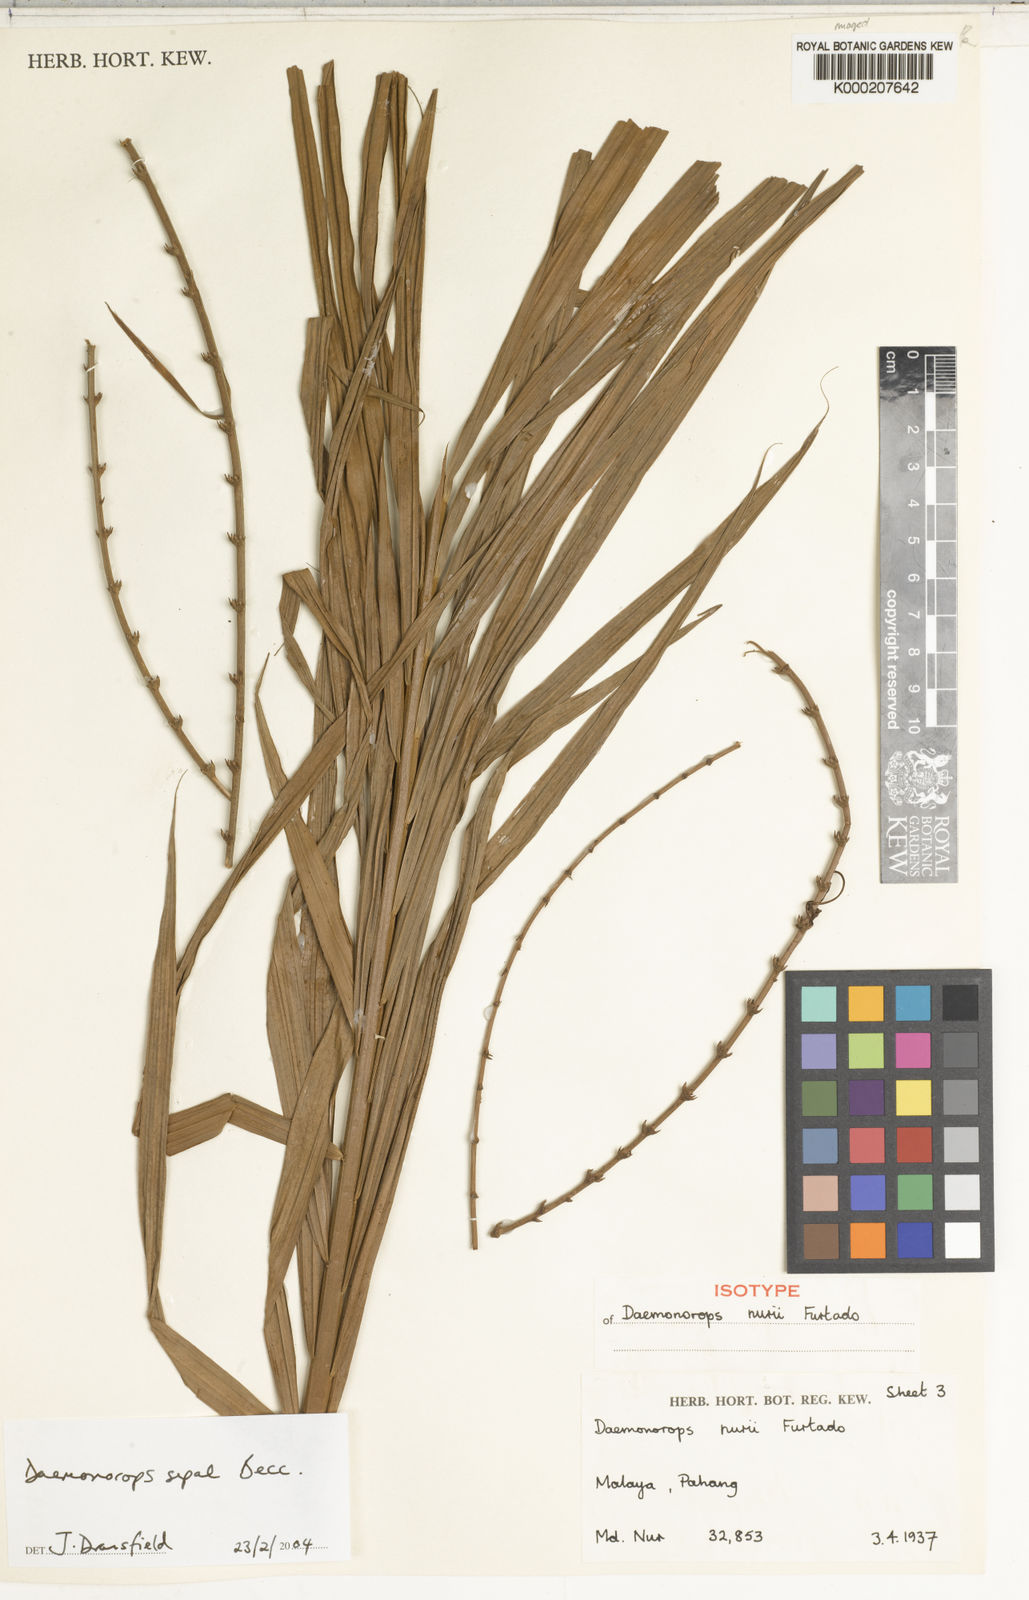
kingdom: Plantae
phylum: Tracheophyta
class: Liliopsida
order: Arecales
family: Arecaceae
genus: Calamus
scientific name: Calamus melanochaetes
